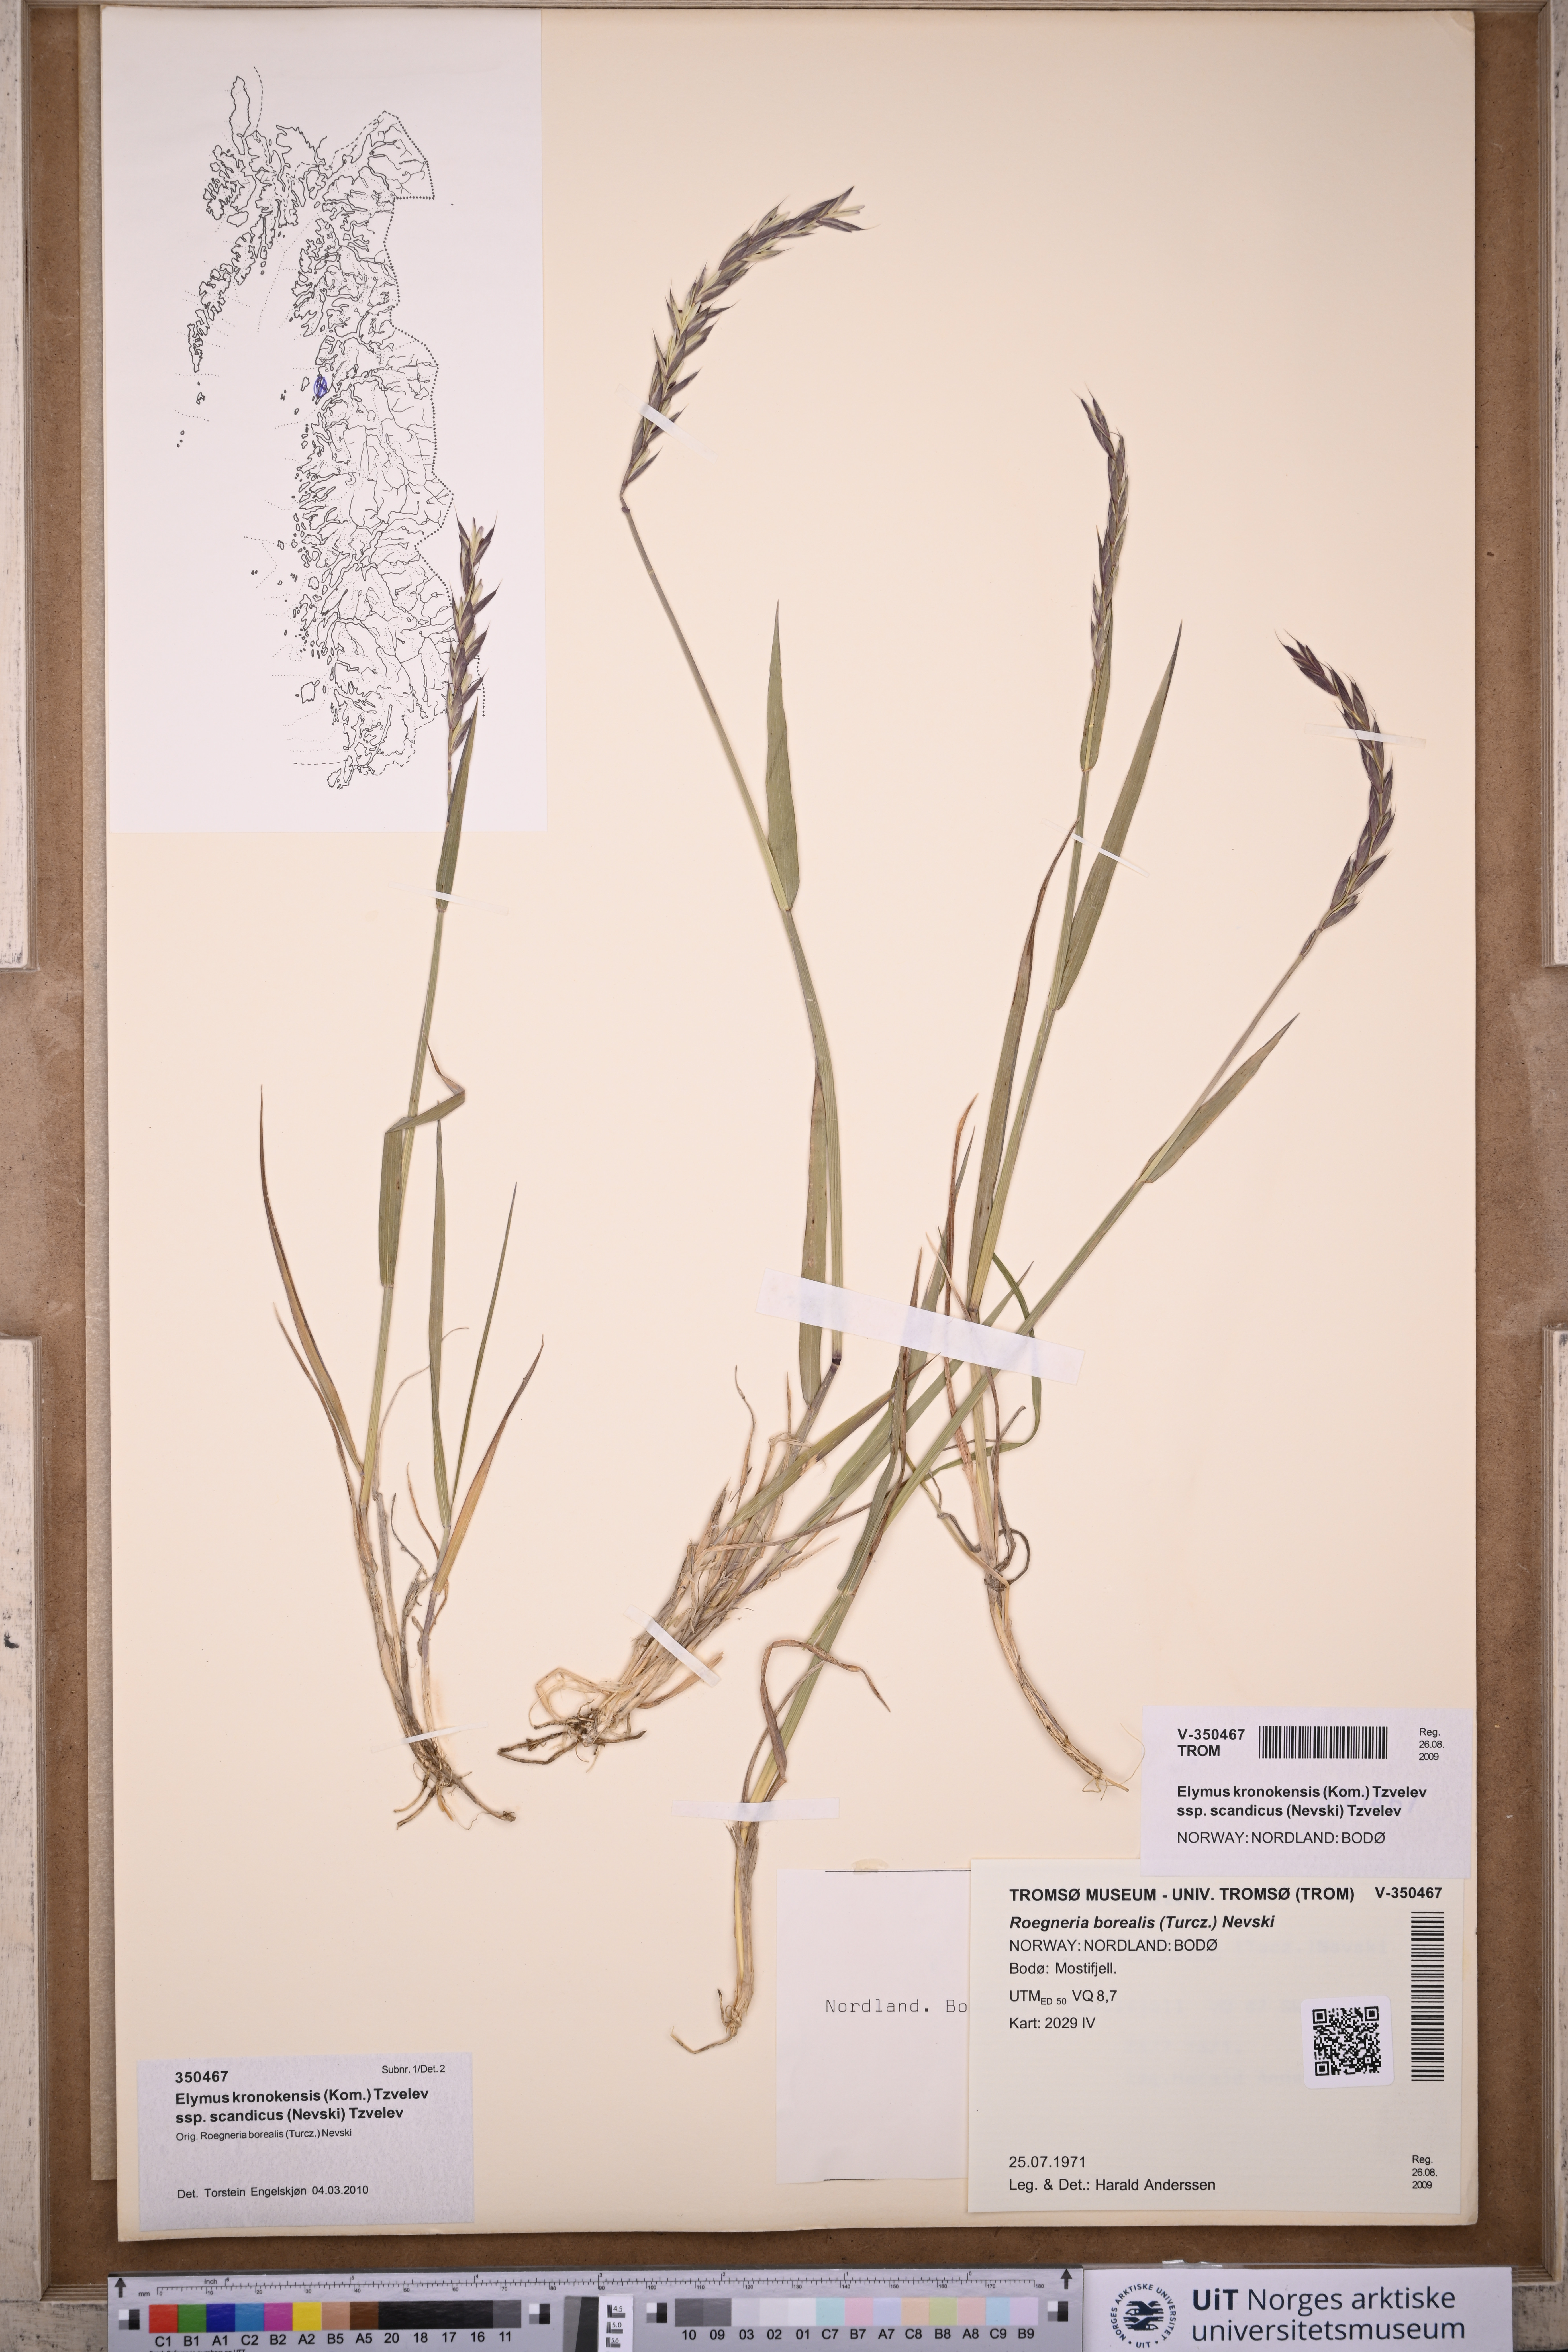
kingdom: Plantae
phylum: Tracheophyta
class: Liliopsida
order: Poales
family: Poaceae
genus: Elymus
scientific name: Elymus macrourus
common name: Northern wheatgrass
